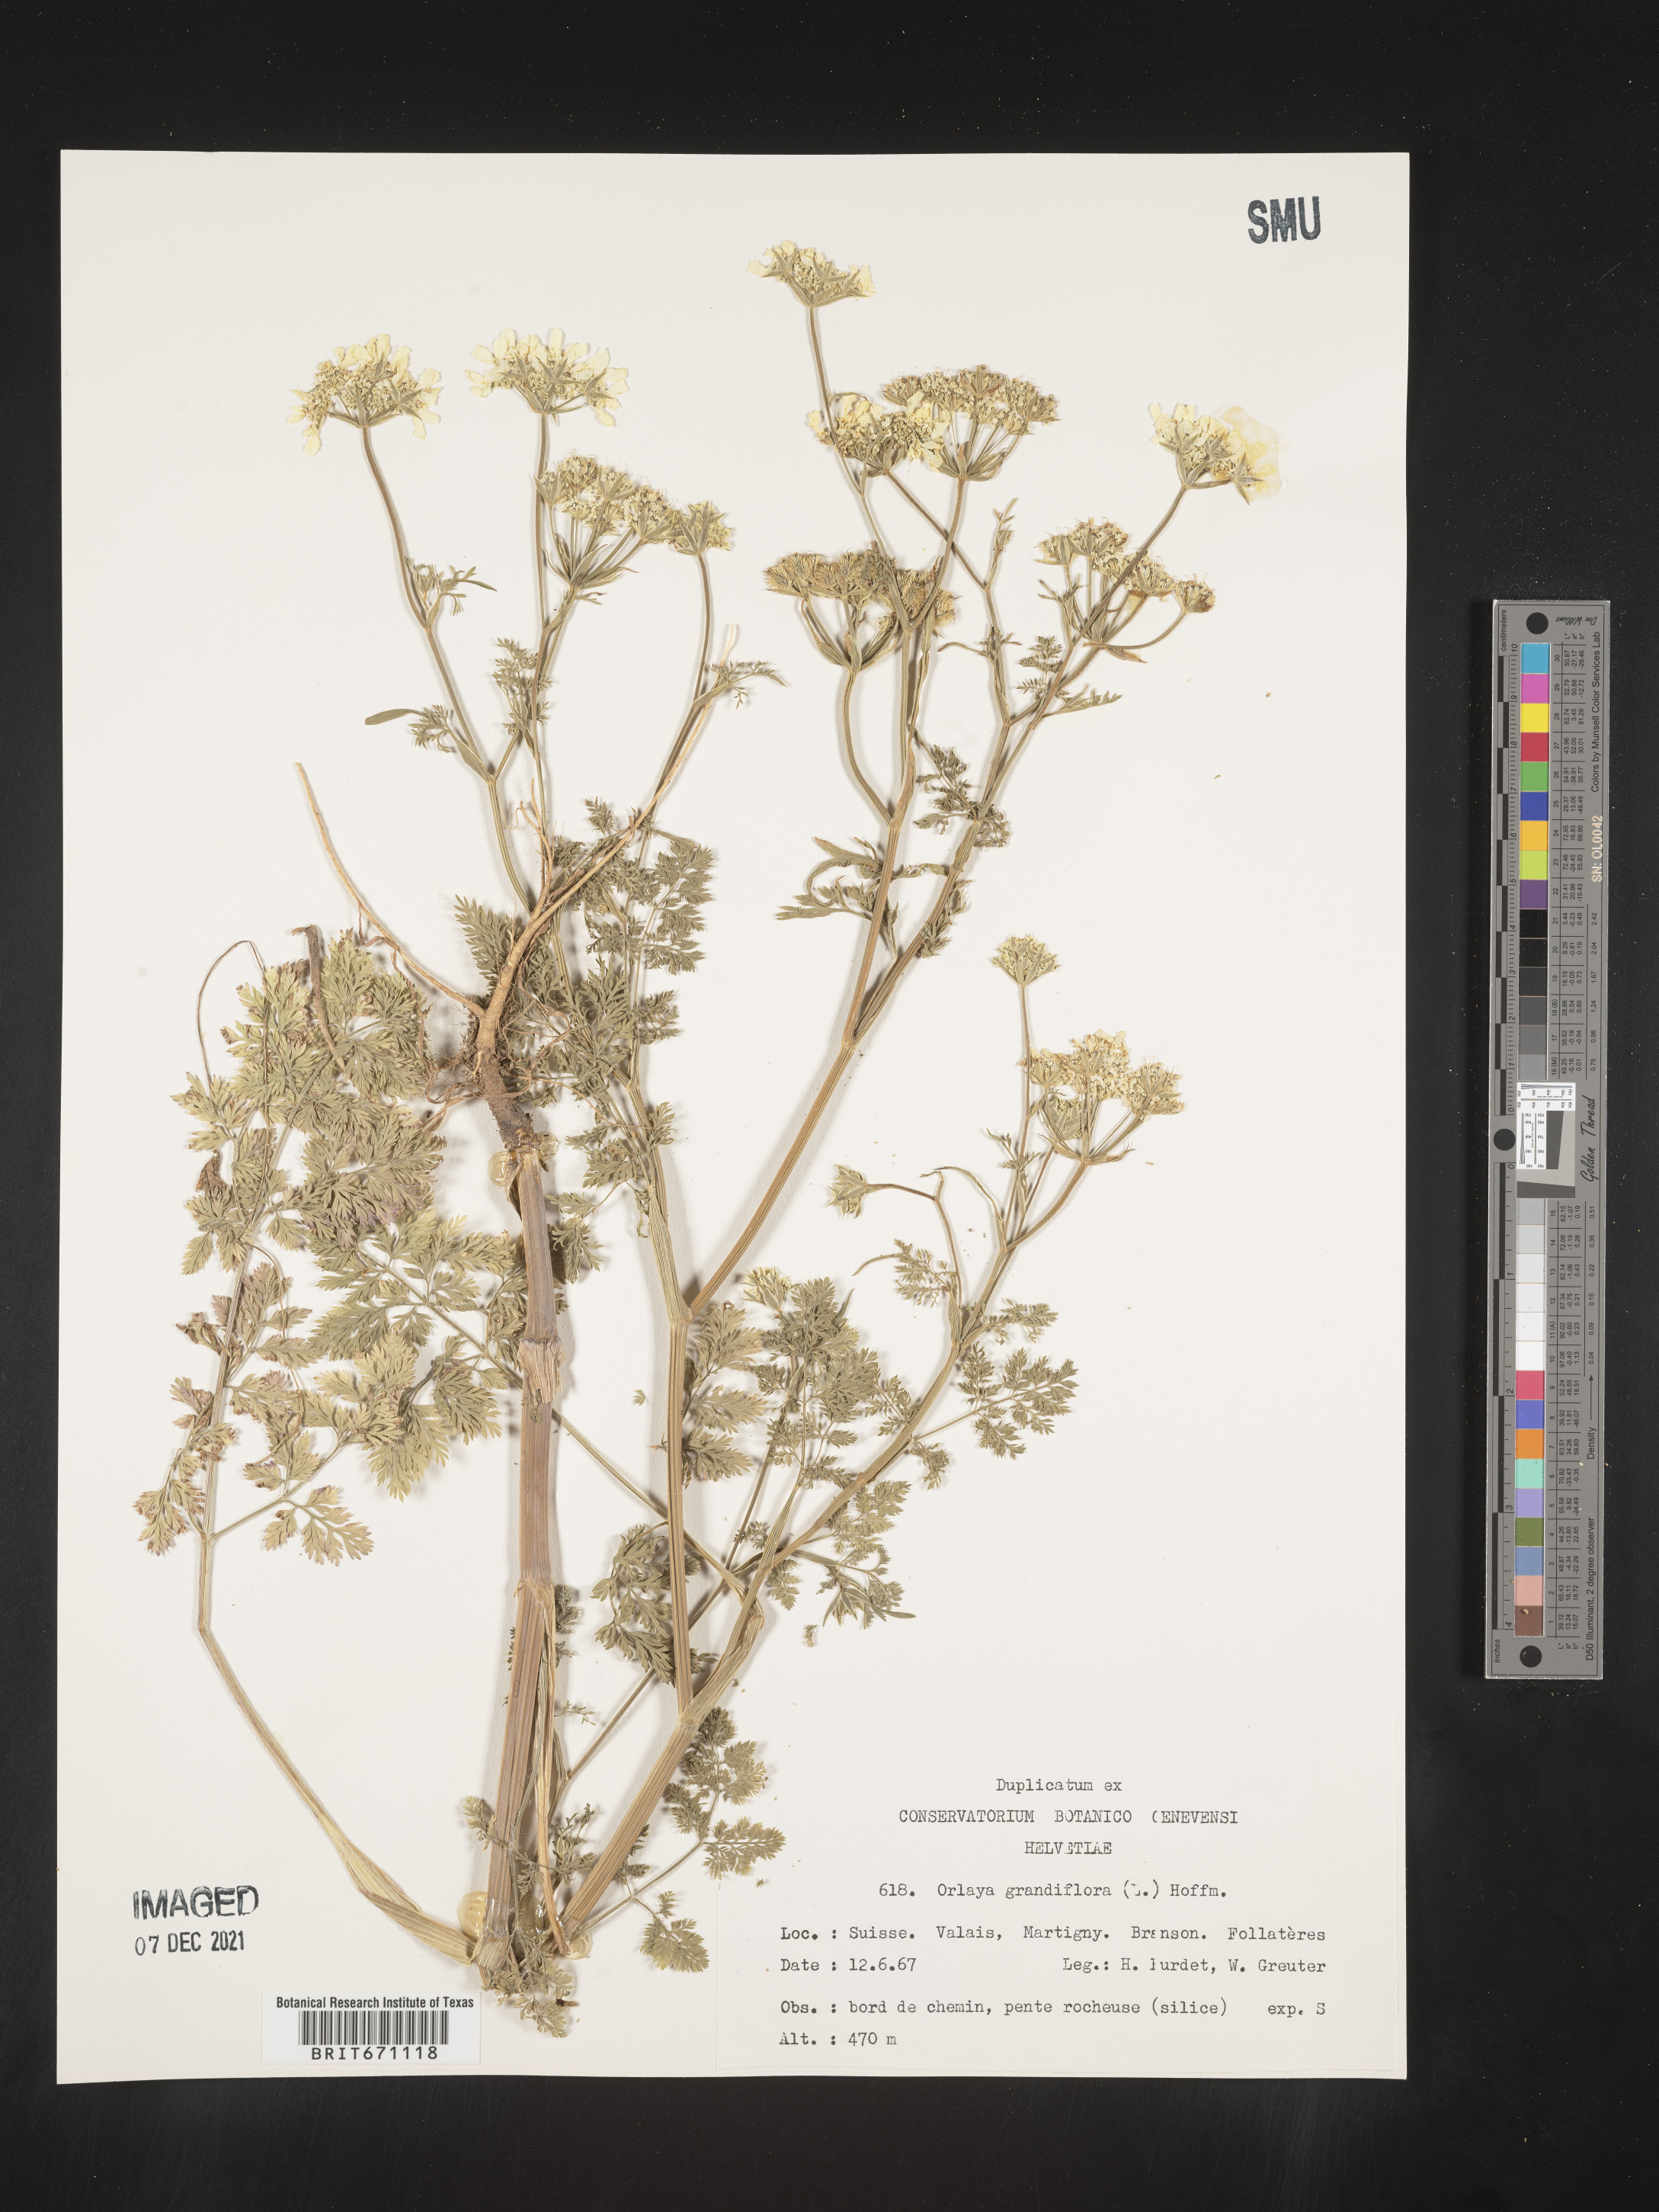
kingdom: Plantae
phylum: Tracheophyta
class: Magnoliopsida
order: Apiales
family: Apiaceae
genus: Orlaya
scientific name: Orlaya
